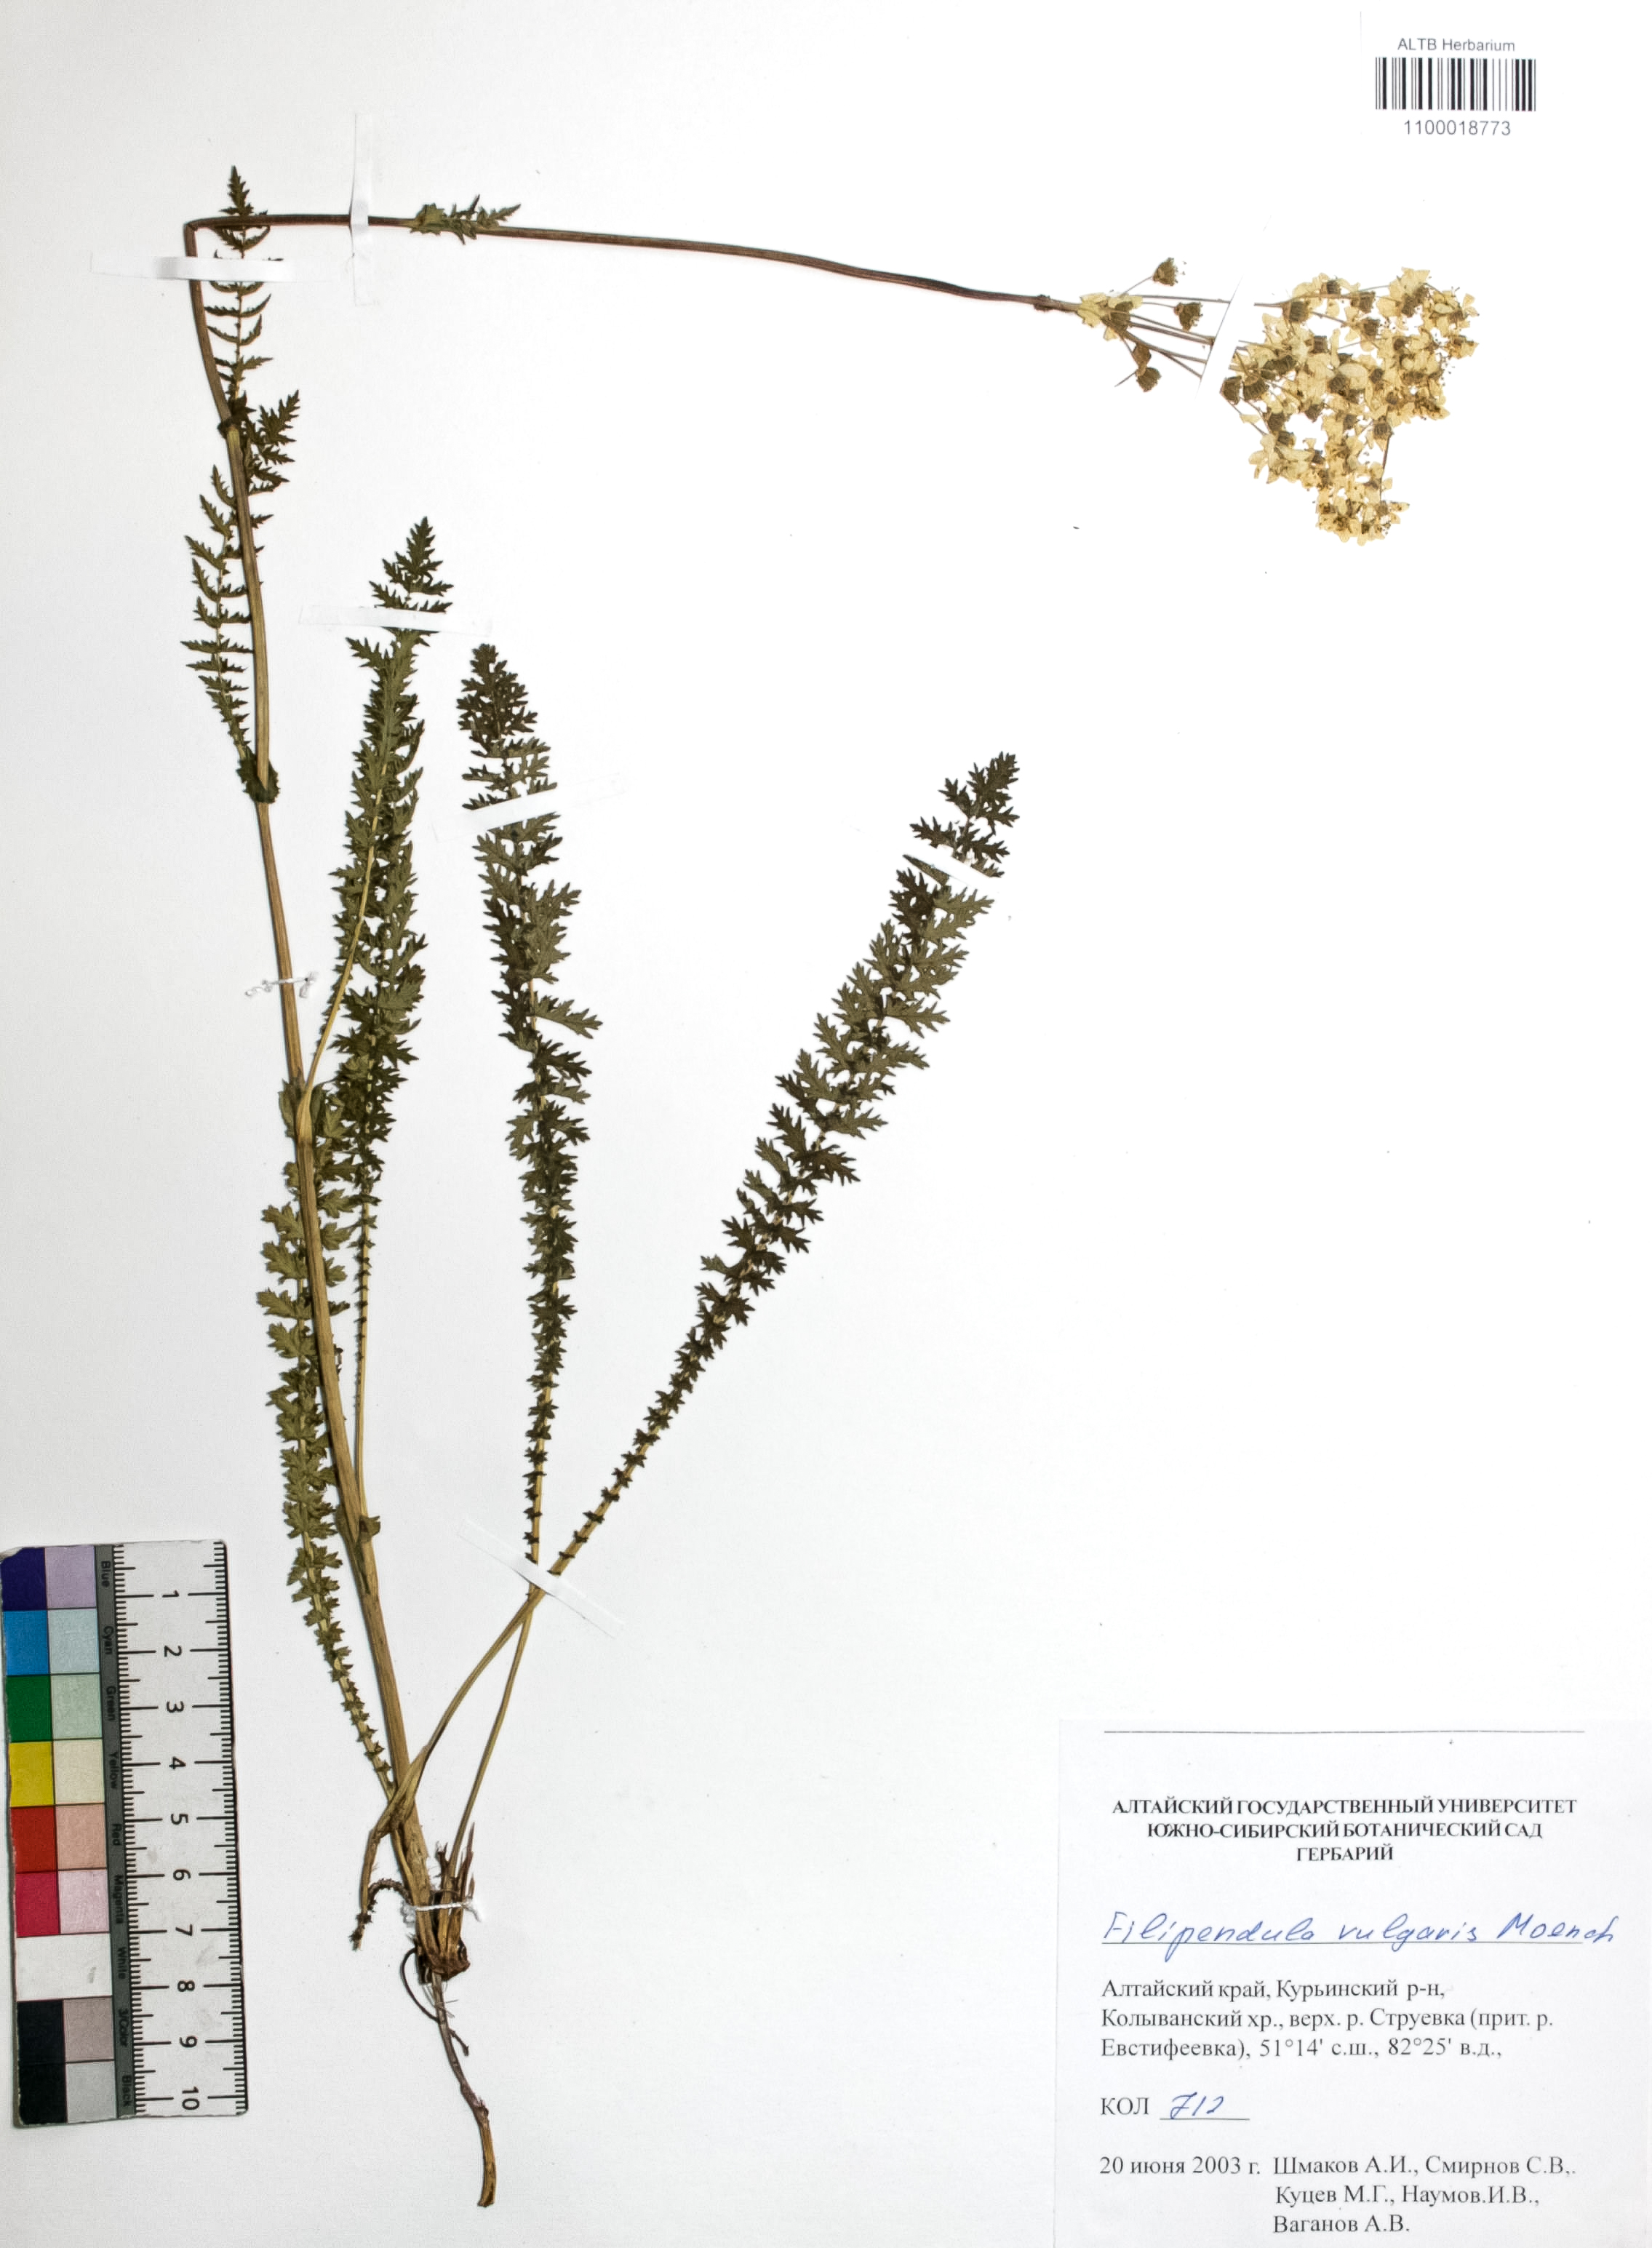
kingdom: Plantae
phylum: Tracheophyta
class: Magnoliopsida
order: Rosales
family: Rosaceae
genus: Filipendula
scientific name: Filipendula vulgaris
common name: Dropwort
